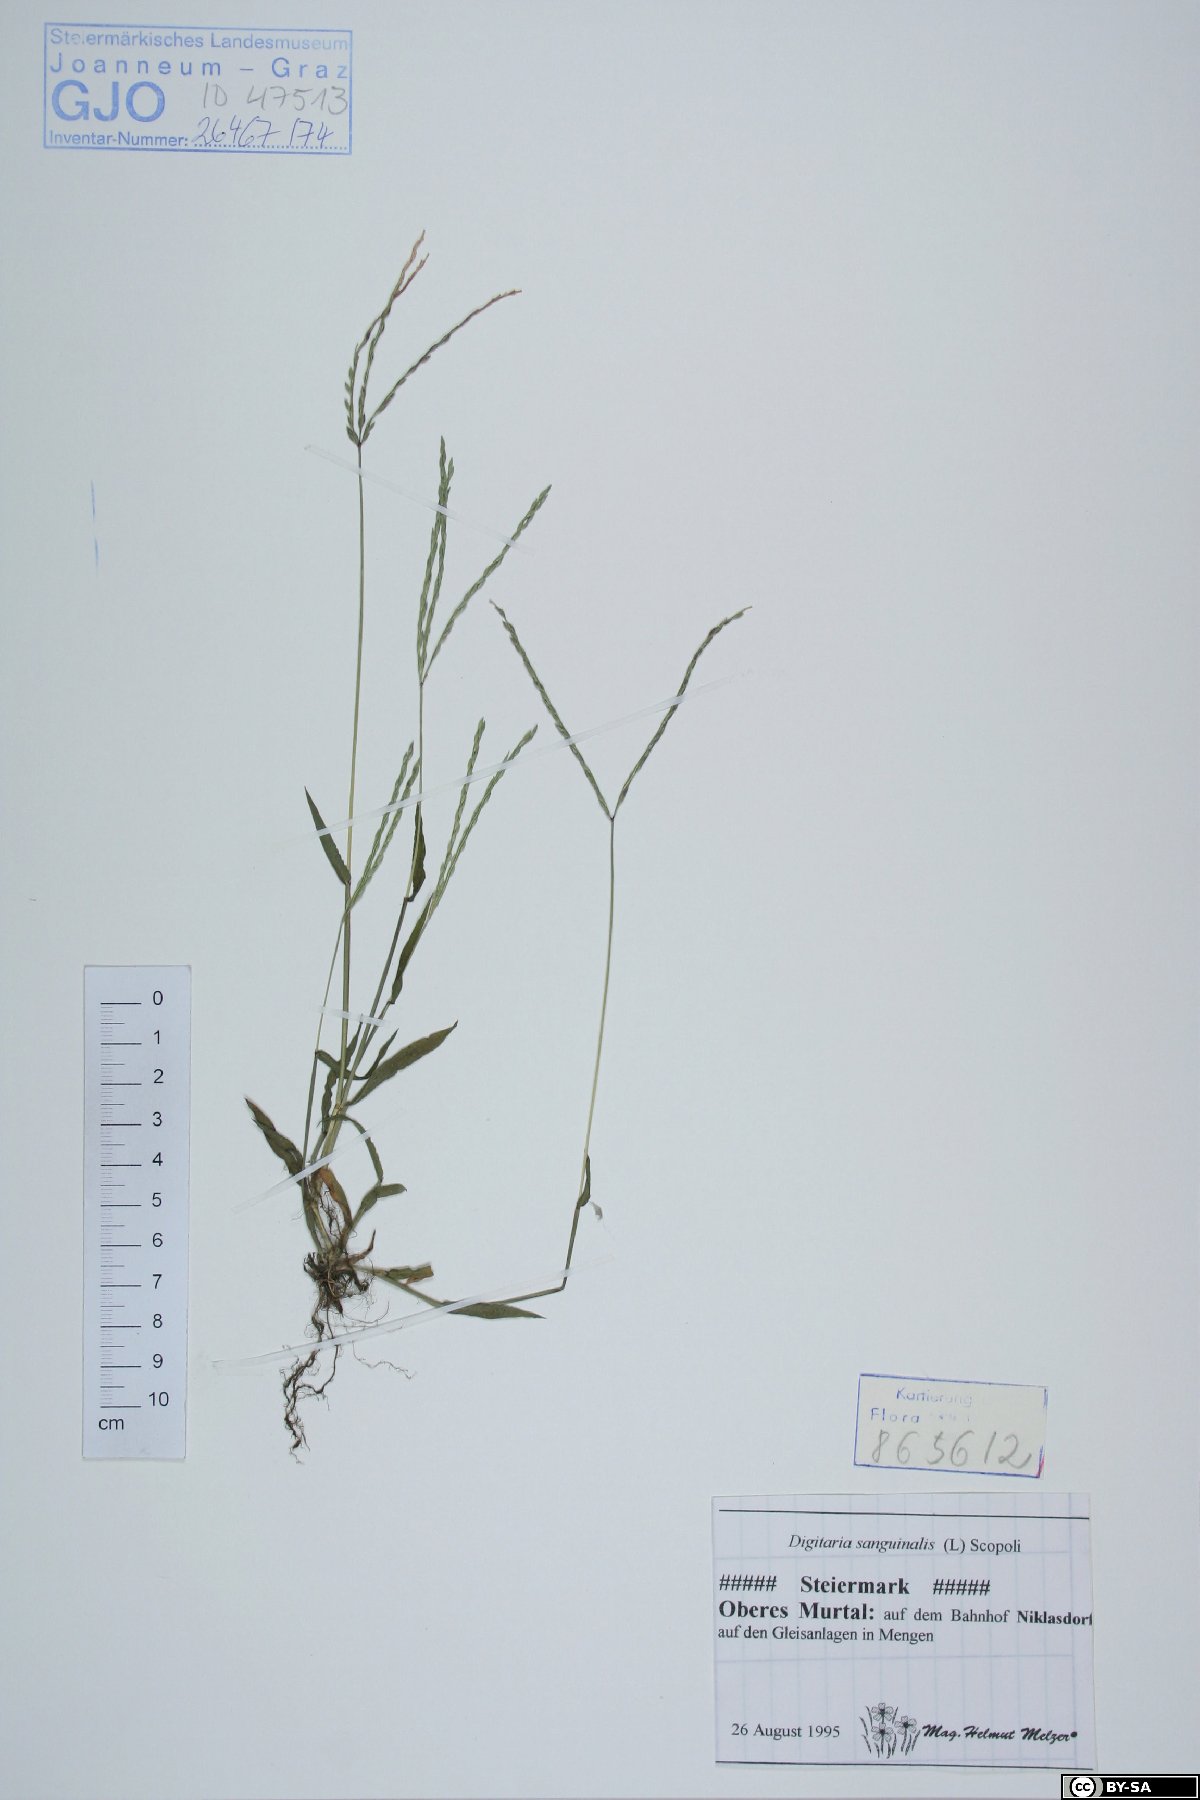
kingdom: Plantae
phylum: Tracheophyta
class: Liliopsida
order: Poales
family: Poaceae
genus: Digitaria
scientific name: Digitaria sanguinalis
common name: Hairy crabgrass
